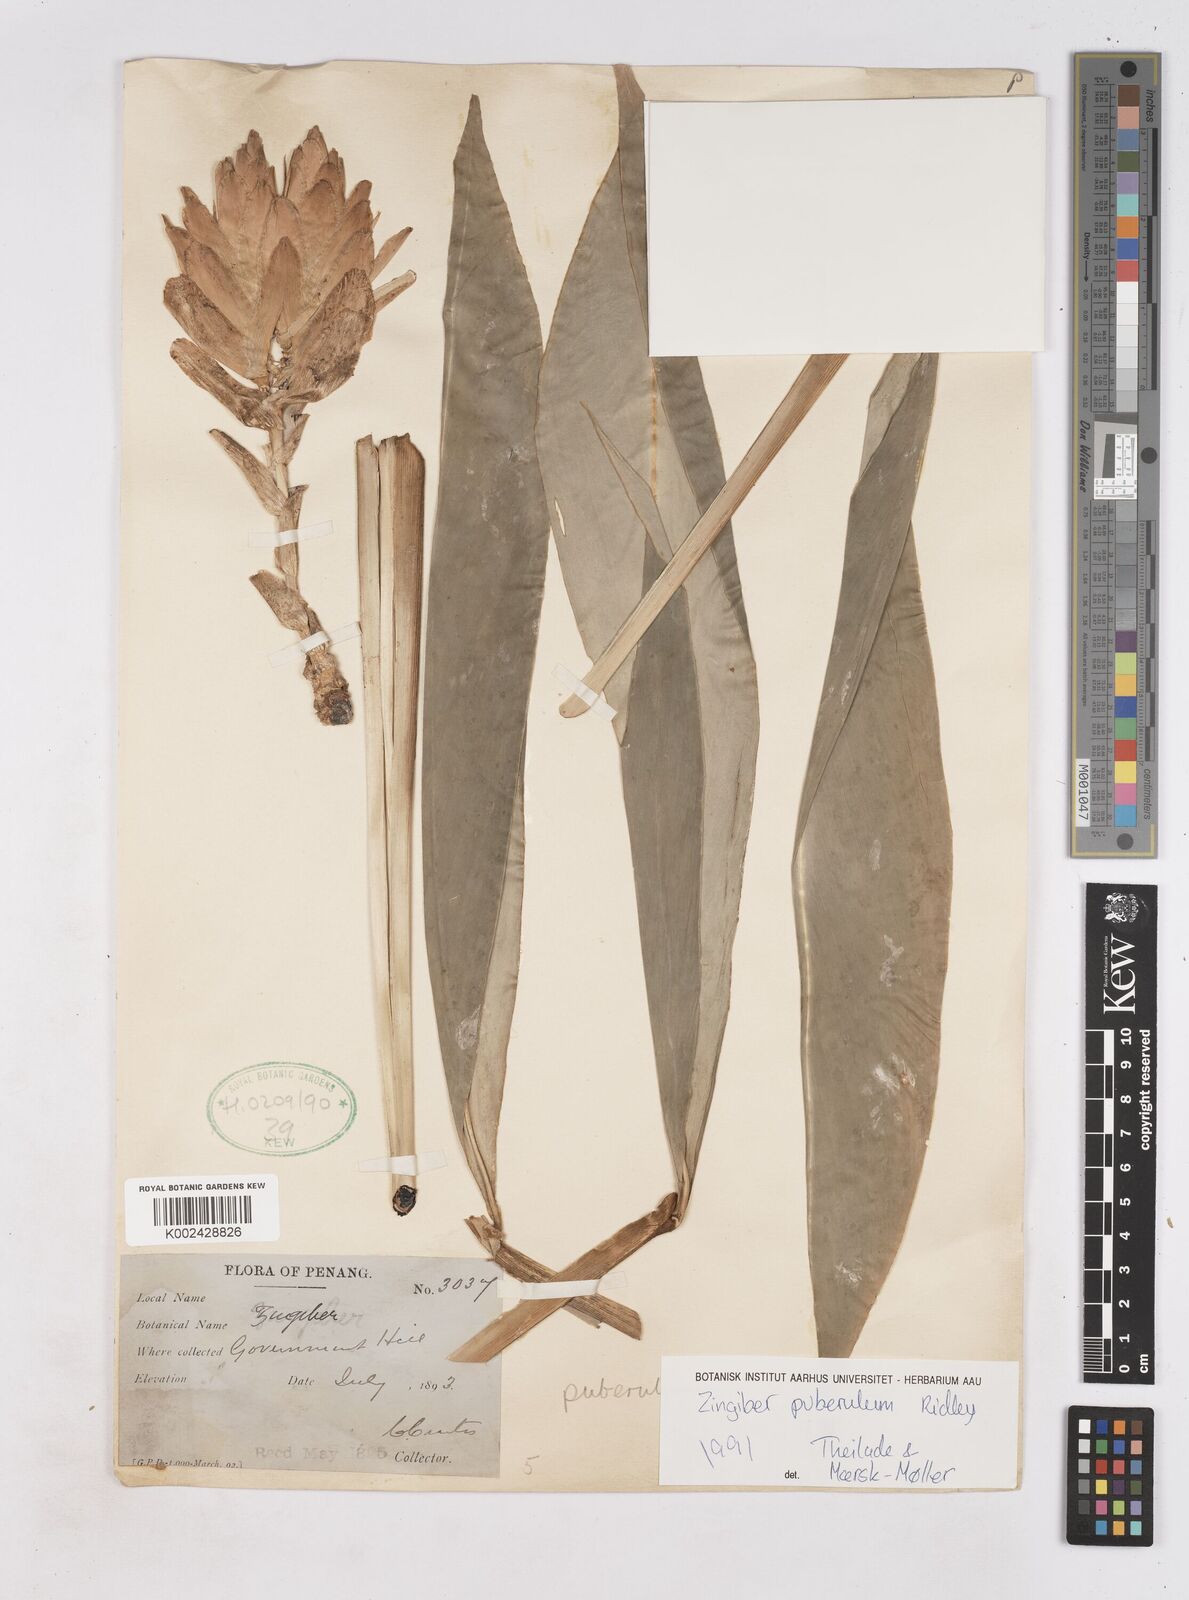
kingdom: Plantae
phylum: Tracheophyta
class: Liliopsida
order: Zingiberales
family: Zingiberaceae
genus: Zingiber
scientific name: Zingiber puberulum
